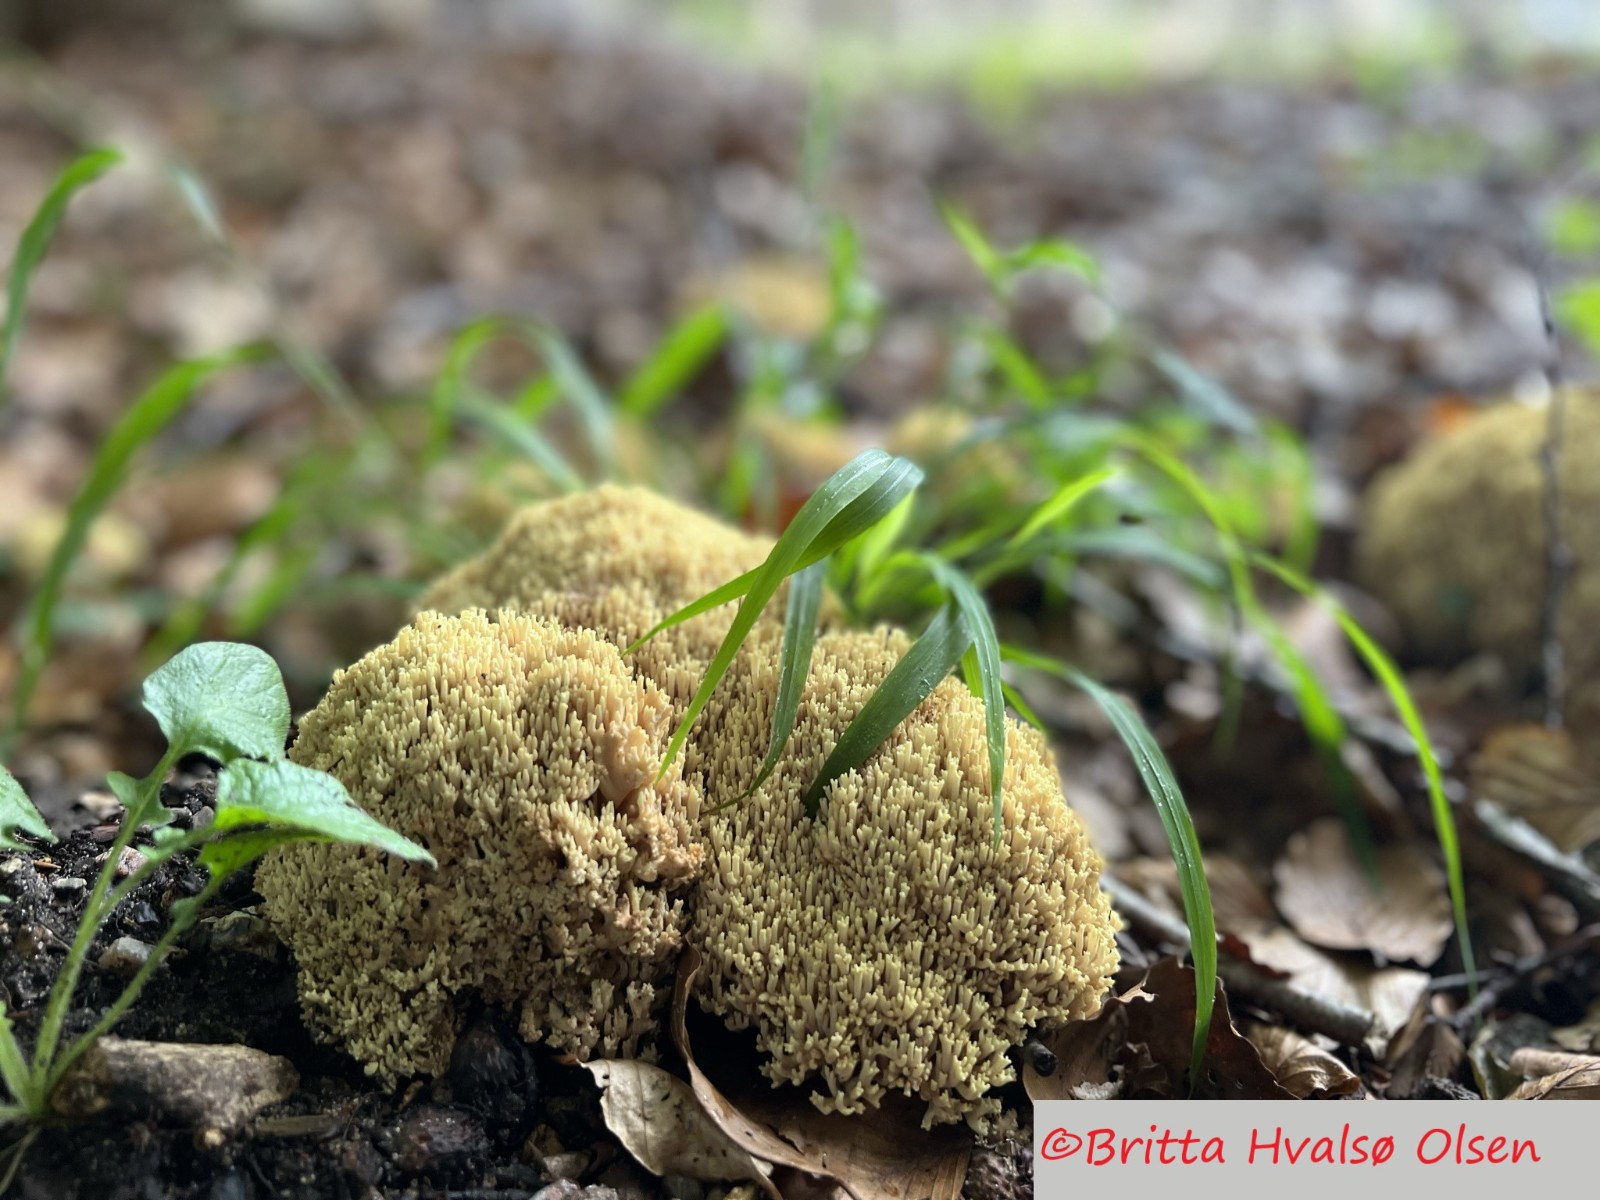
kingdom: Fungi
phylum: Basidiomycota
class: Agaricomycetes
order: Gomphales
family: Gomphaceae
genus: Ramaria
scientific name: Ramaria stricta
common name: rank koralsvamp
